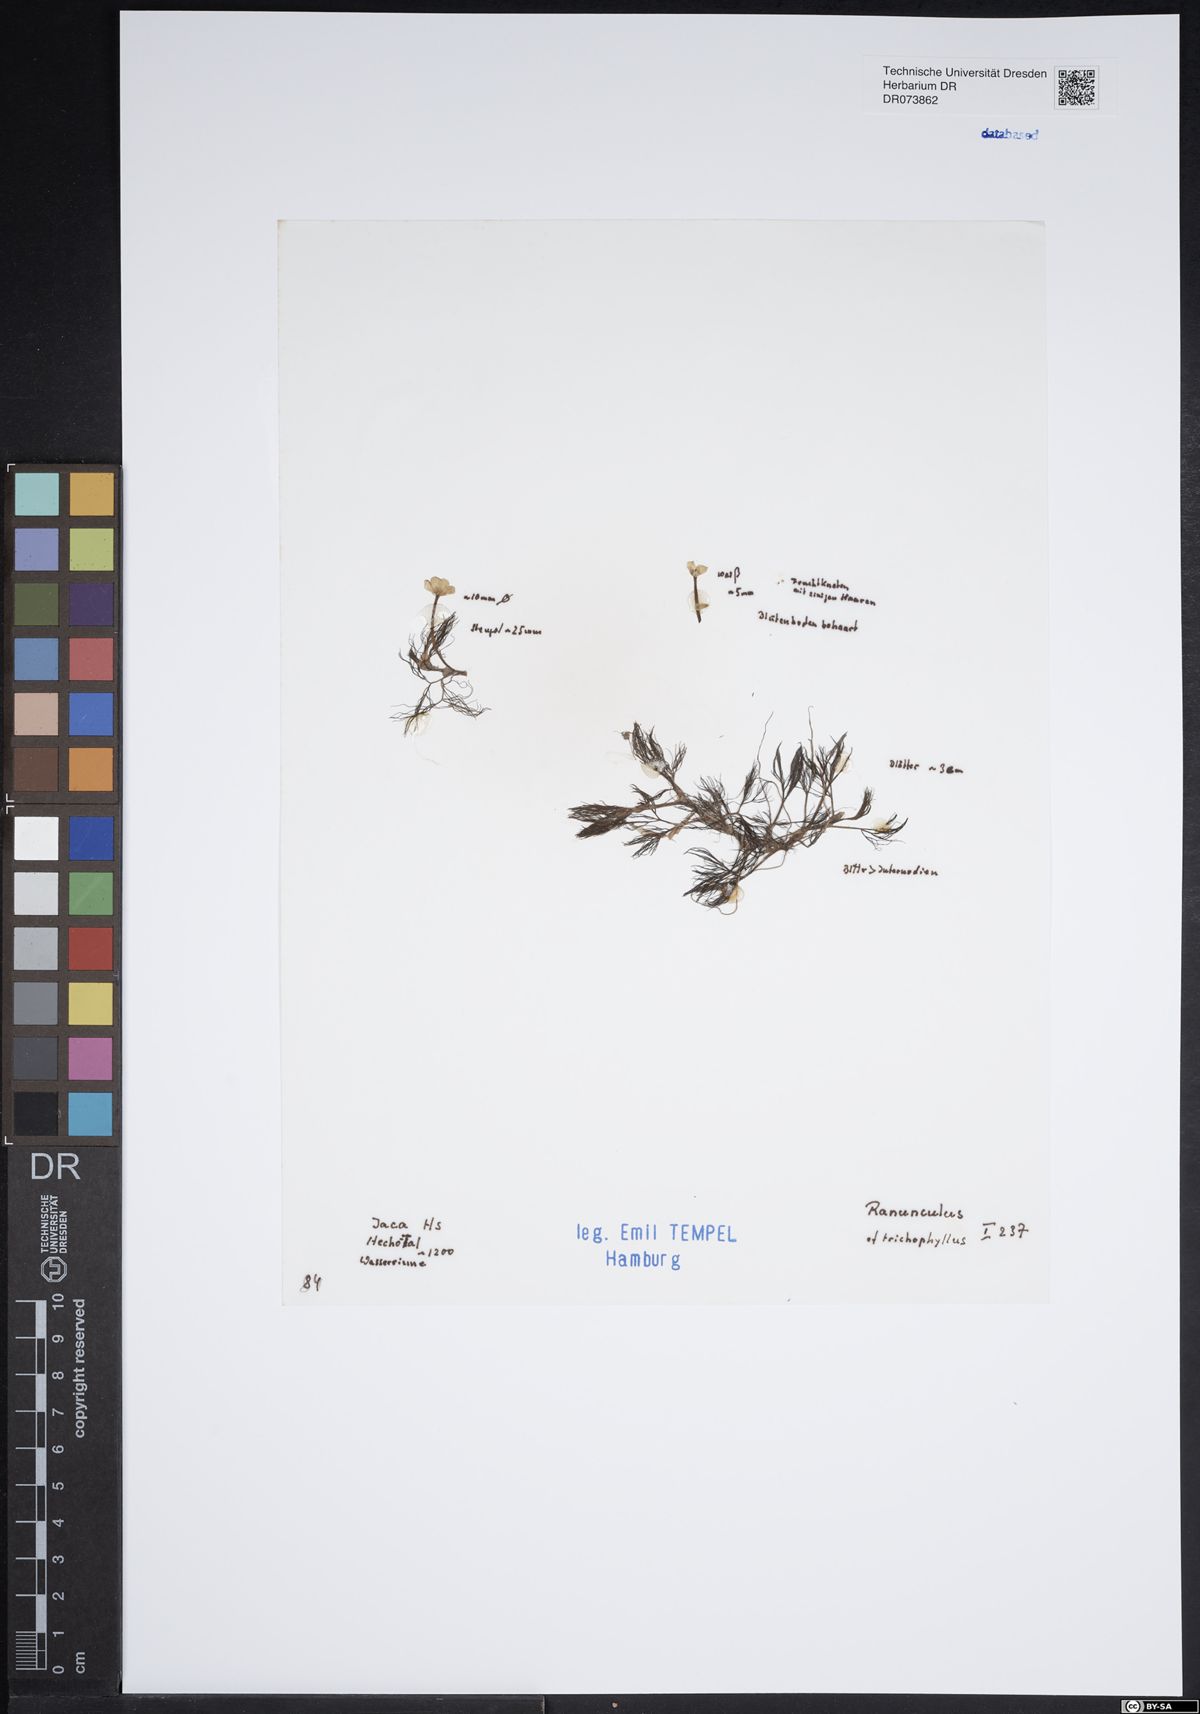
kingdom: Plantae
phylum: Tracheophyta
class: Magnoliopsida
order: Ranunculales
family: Ranunculaceae
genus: Ranunculus
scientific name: Ranunculus trichophyllus
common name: Thread-leaved water-crowfoot
